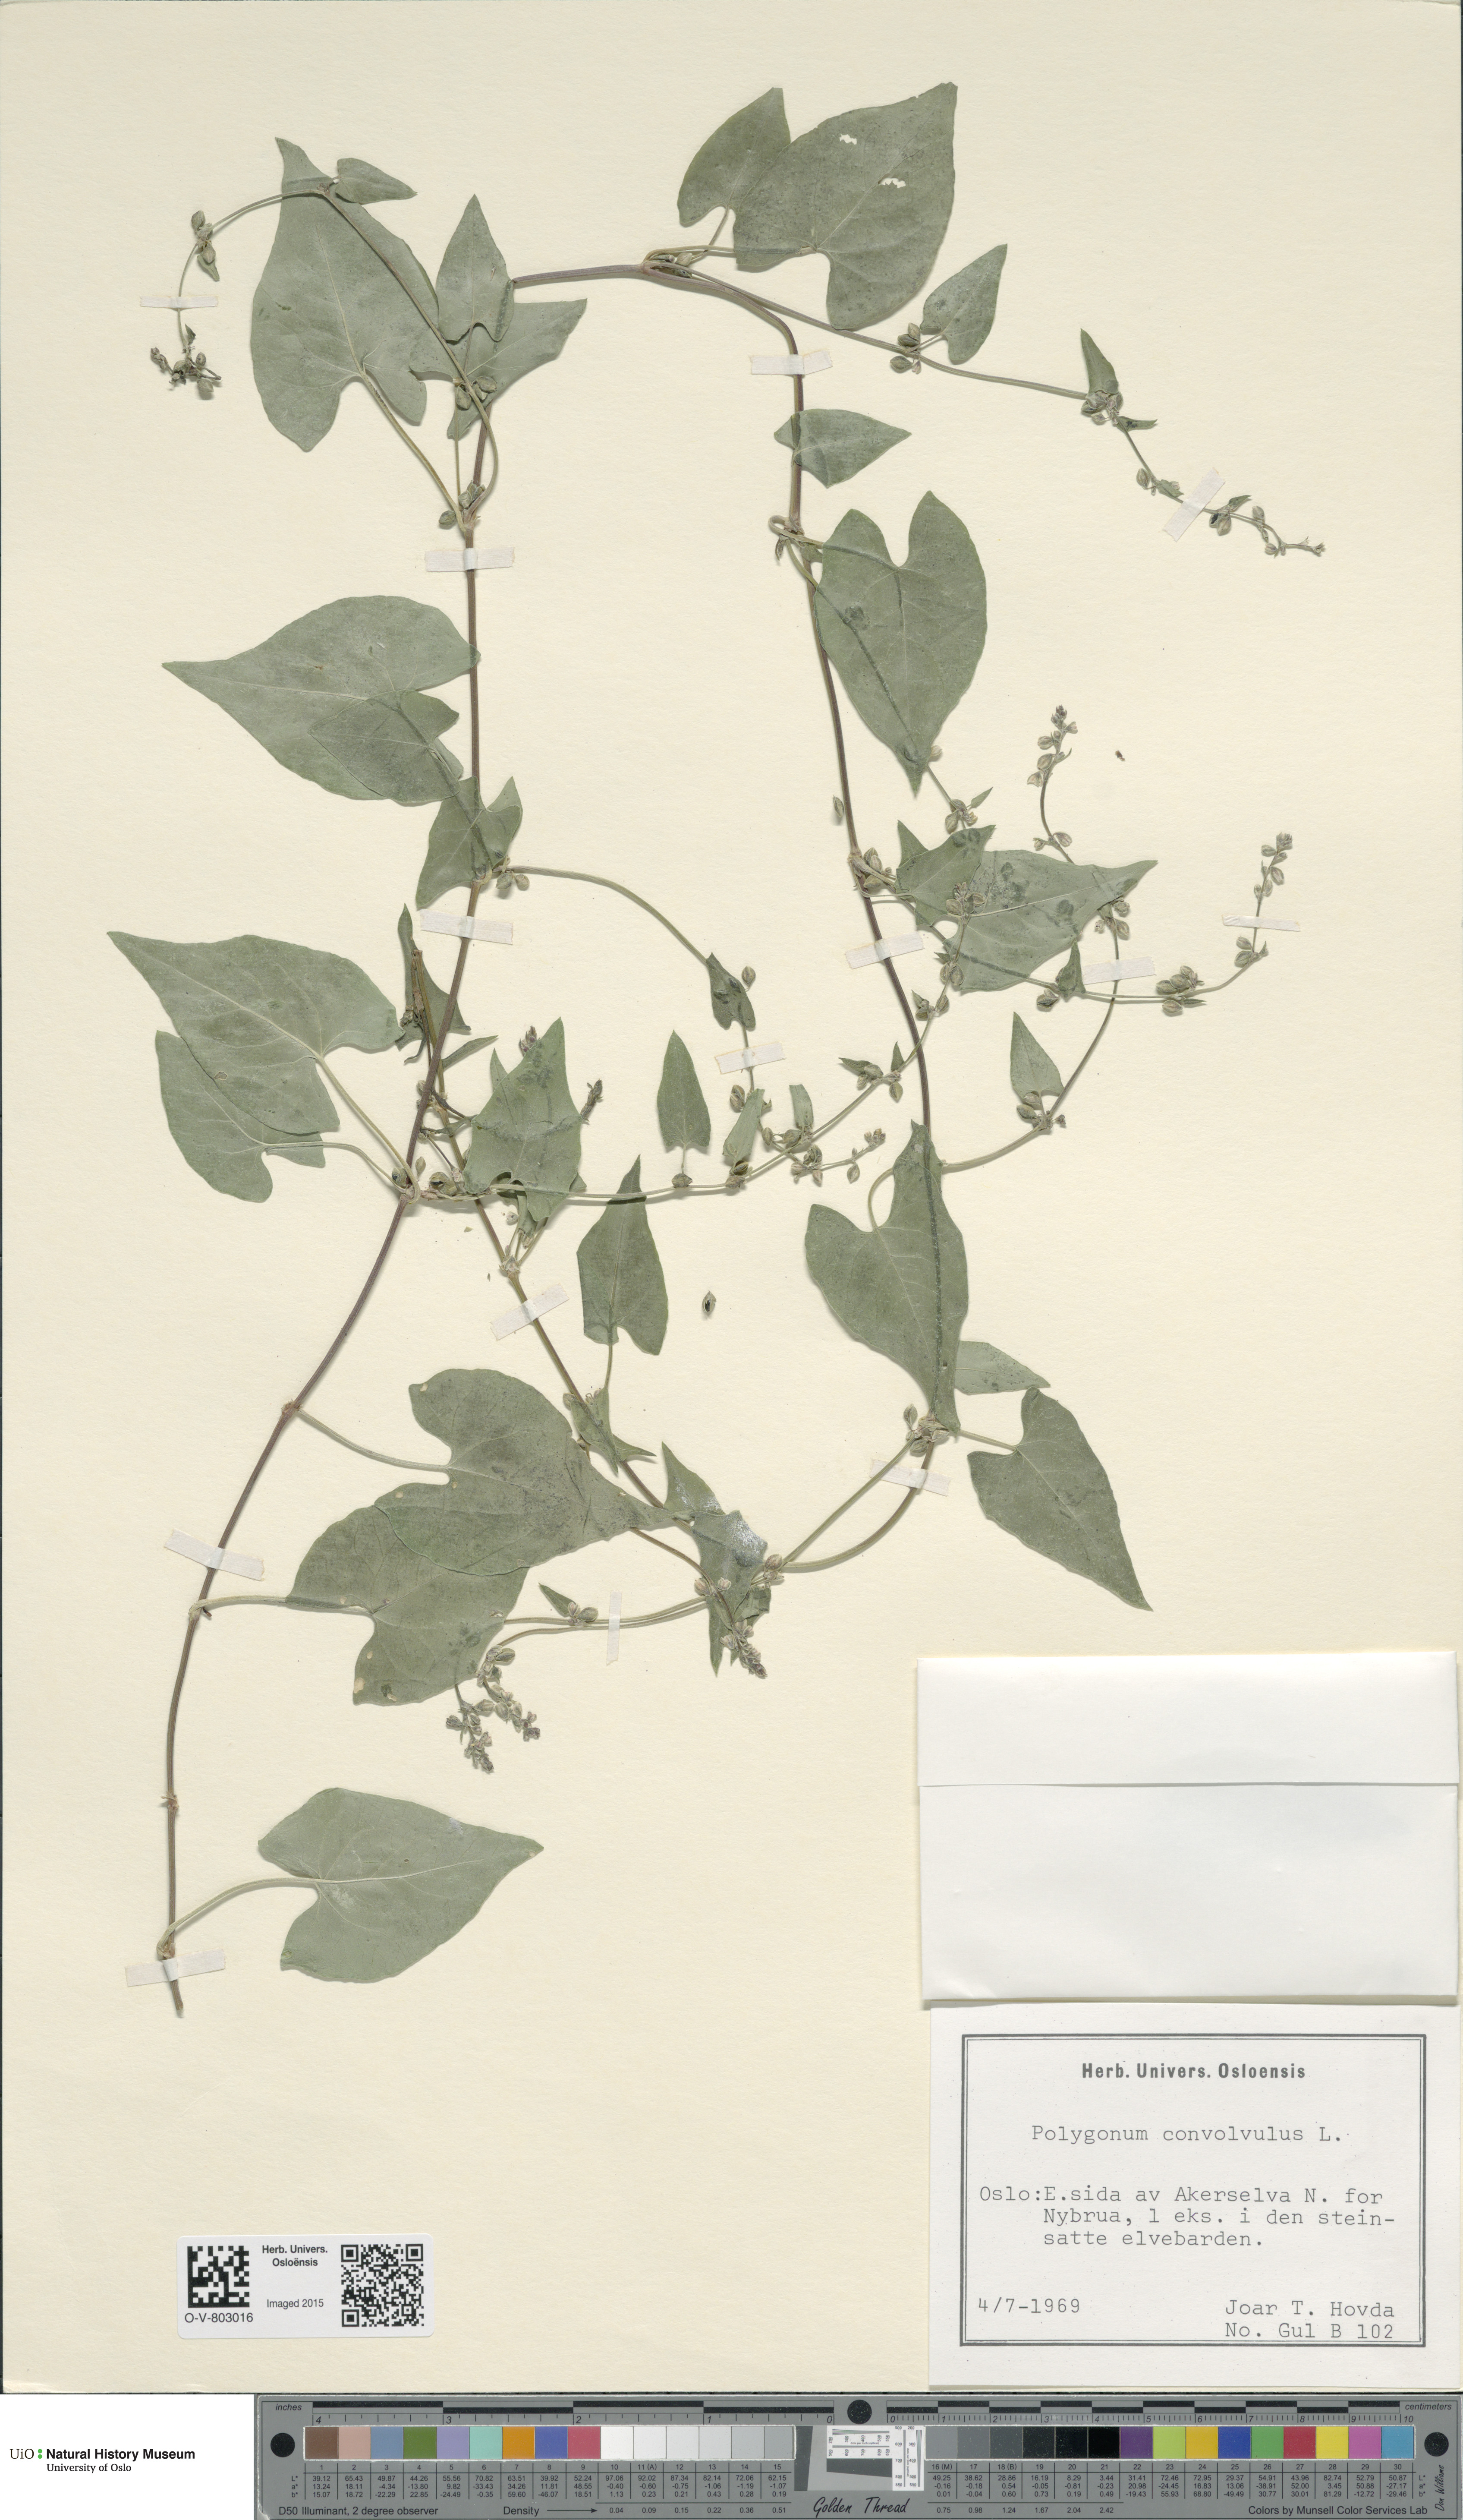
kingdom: Plantae
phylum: Tracheophyta
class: Magnoliopsida
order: Caryophyllales
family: Polygonaceae
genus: Fallopia
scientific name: Fallopia convolvulus
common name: Black bindweed
